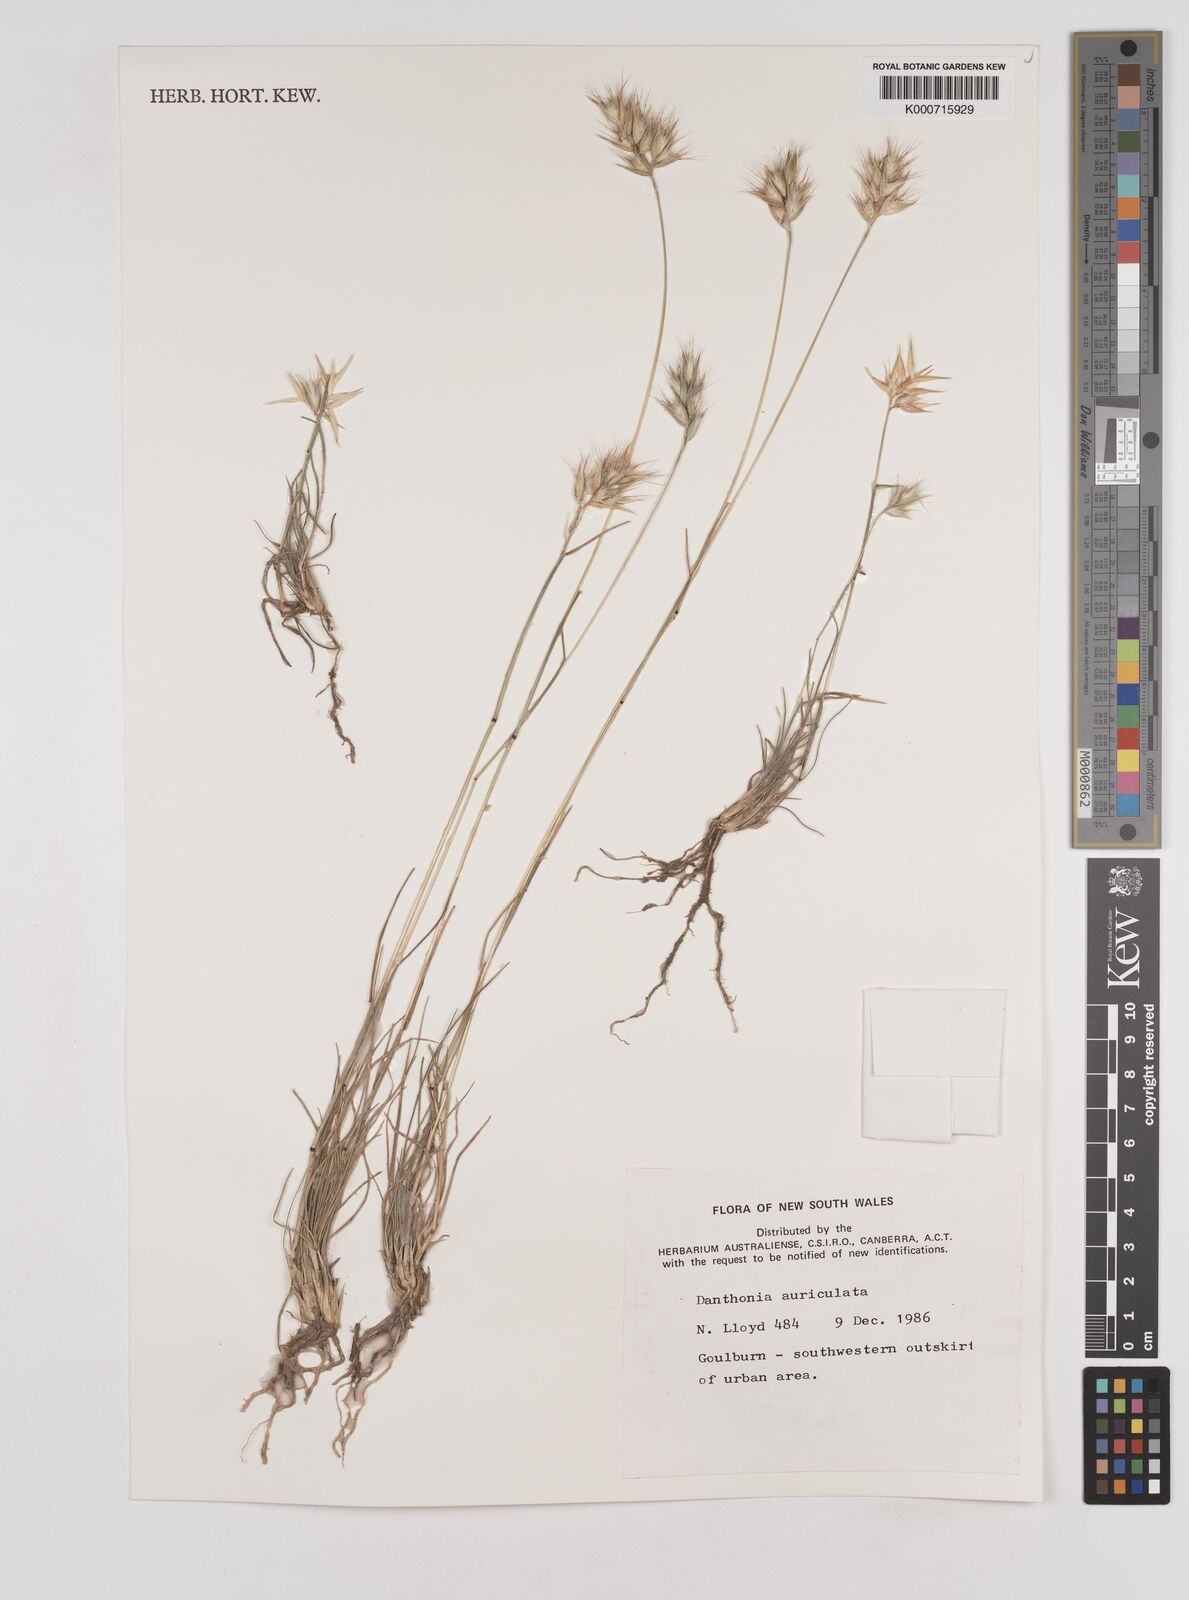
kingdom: Plantae
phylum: Tracheophyta
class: Liliopsida
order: Poales
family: Poaceae
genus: Rytidosperma
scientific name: Rytidosperma auriculatum
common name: Lobed wallaby grass
